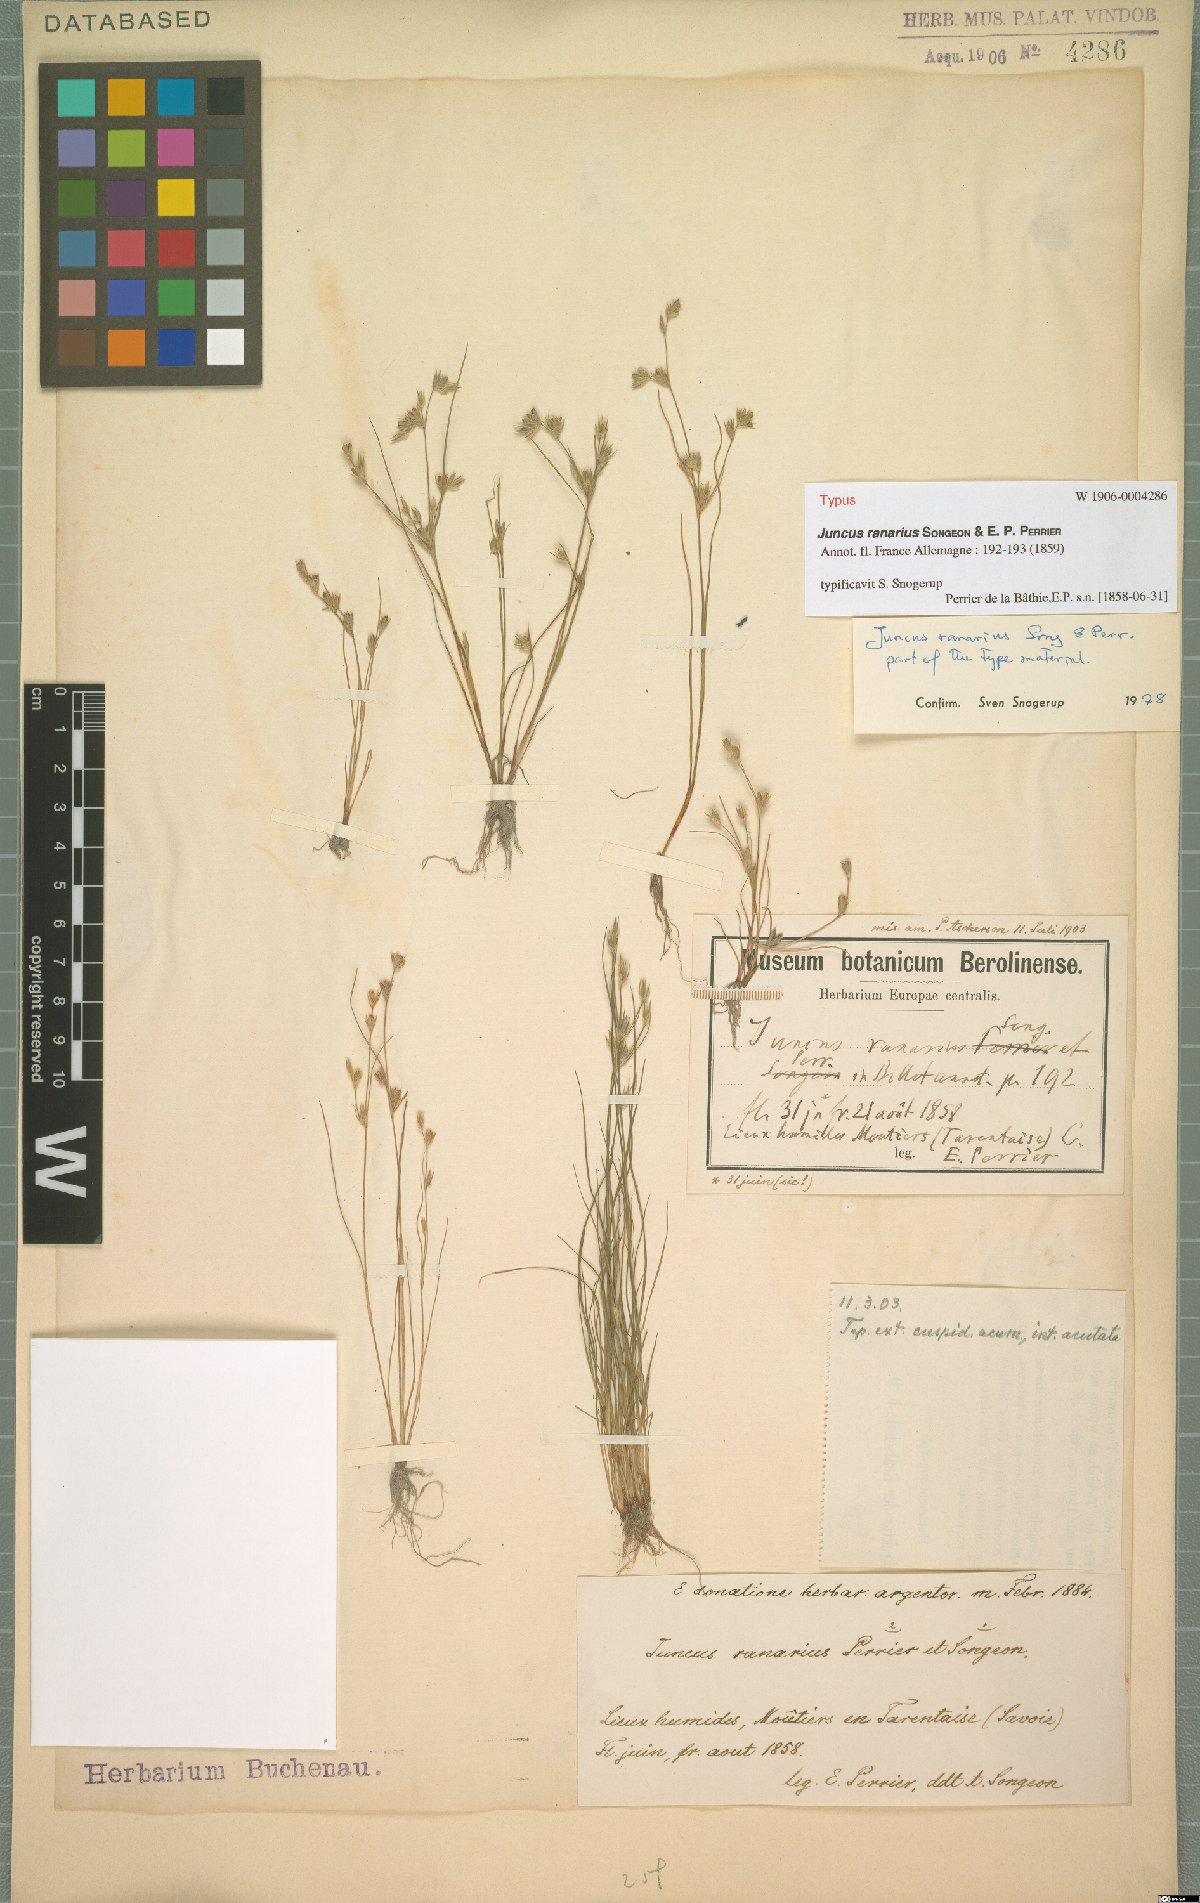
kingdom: Plantae
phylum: Tracheophyta
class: Liliopsida
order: Poales
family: Juncaceae
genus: Juncus
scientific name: Juncus ranarius
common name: Frog rush
